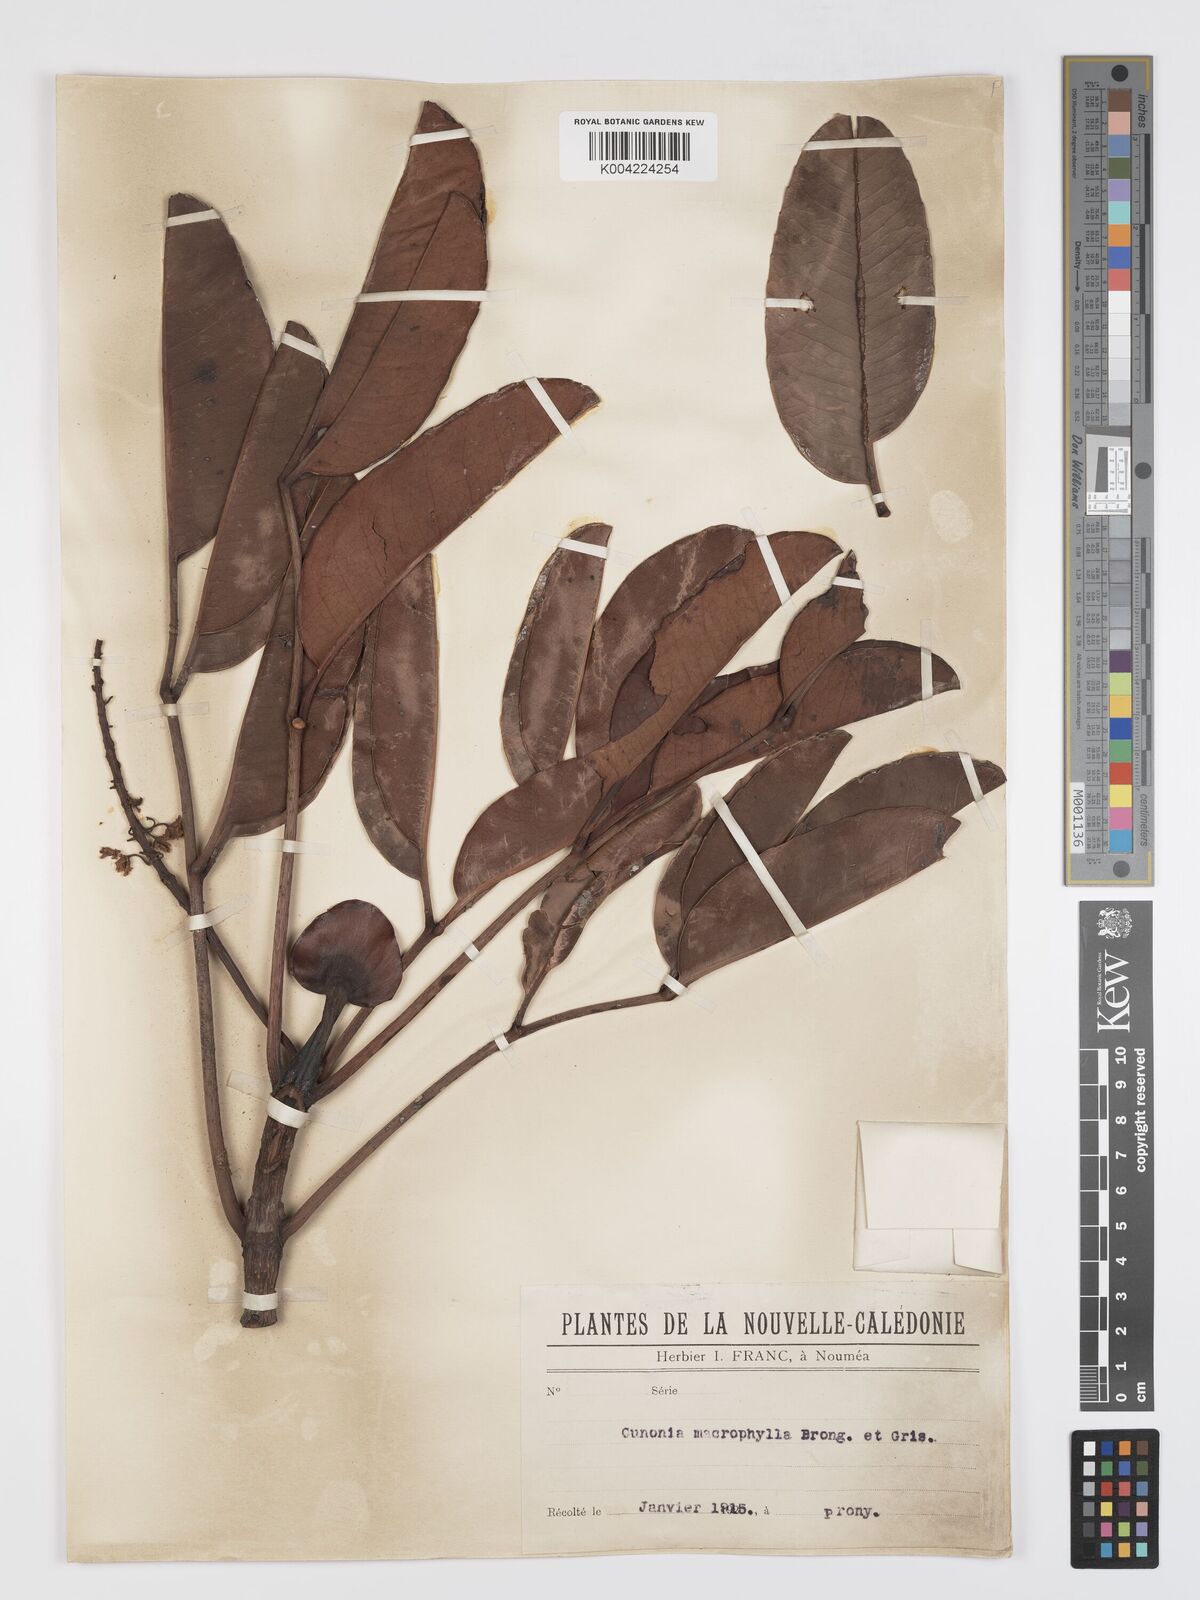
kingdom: Plantae
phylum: Tracheophyta
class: Magnoliopsida
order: Oxalidales
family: Cunoniaceae
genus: Cunonia
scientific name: Cunonia macrophylla
